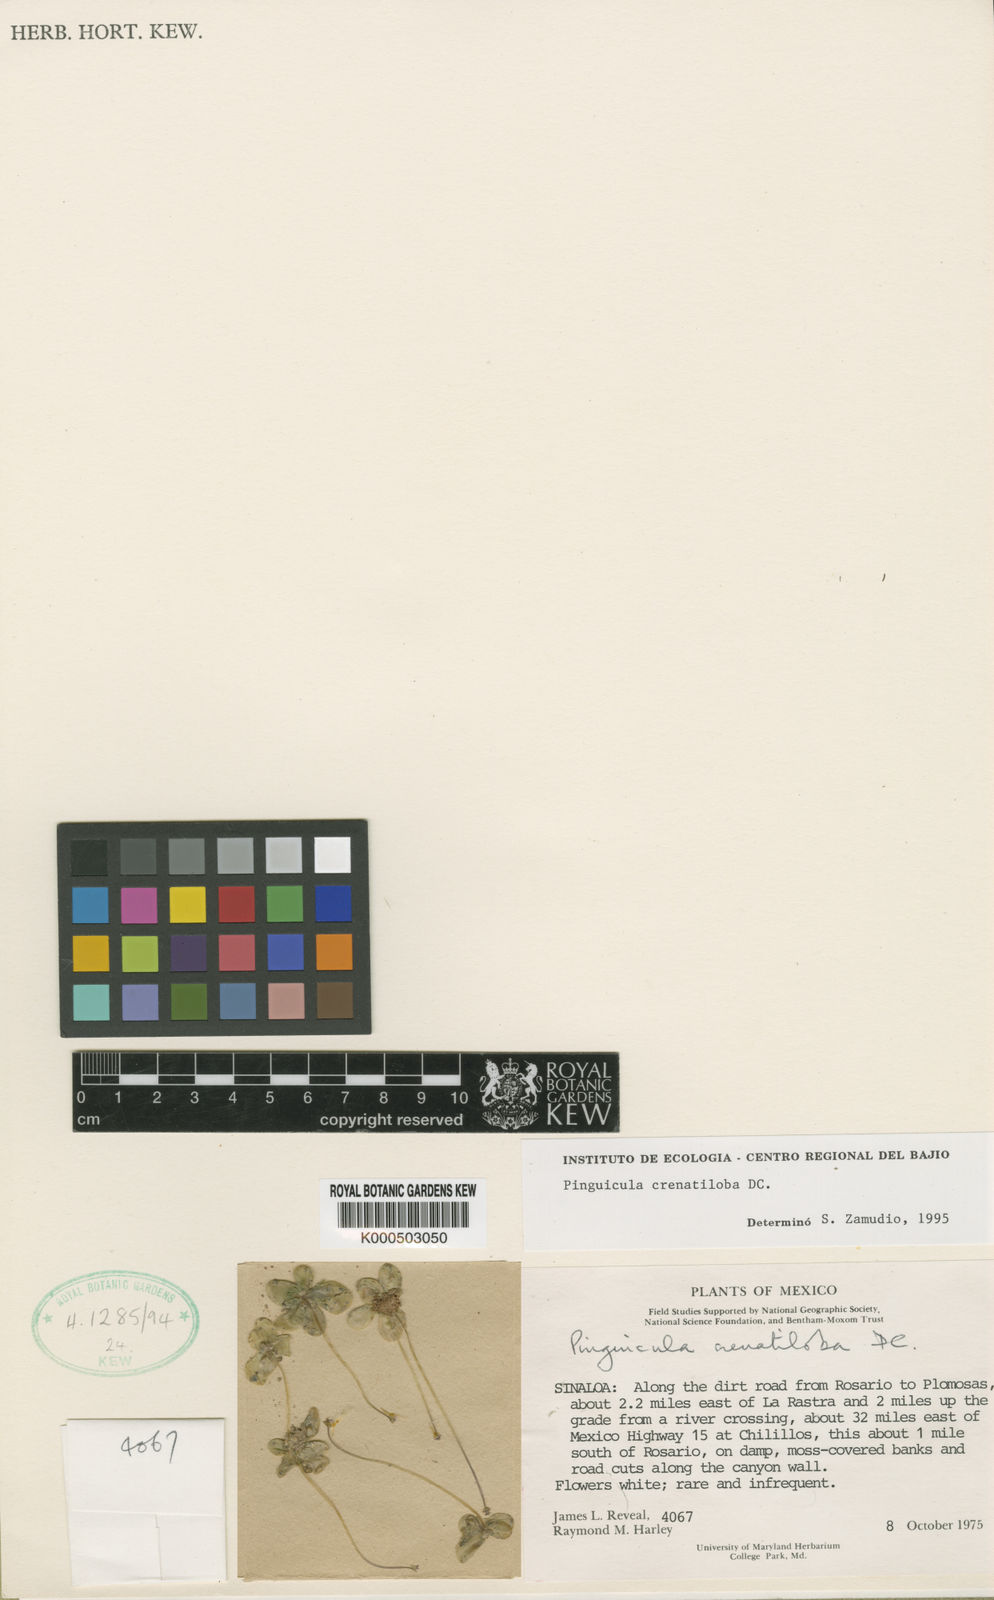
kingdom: Plantae
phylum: Tracheophyta
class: Magnoliopsida
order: Lamiales
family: Lentibulariaceae
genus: Pinguicula
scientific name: Pinguicula crenatiloba
